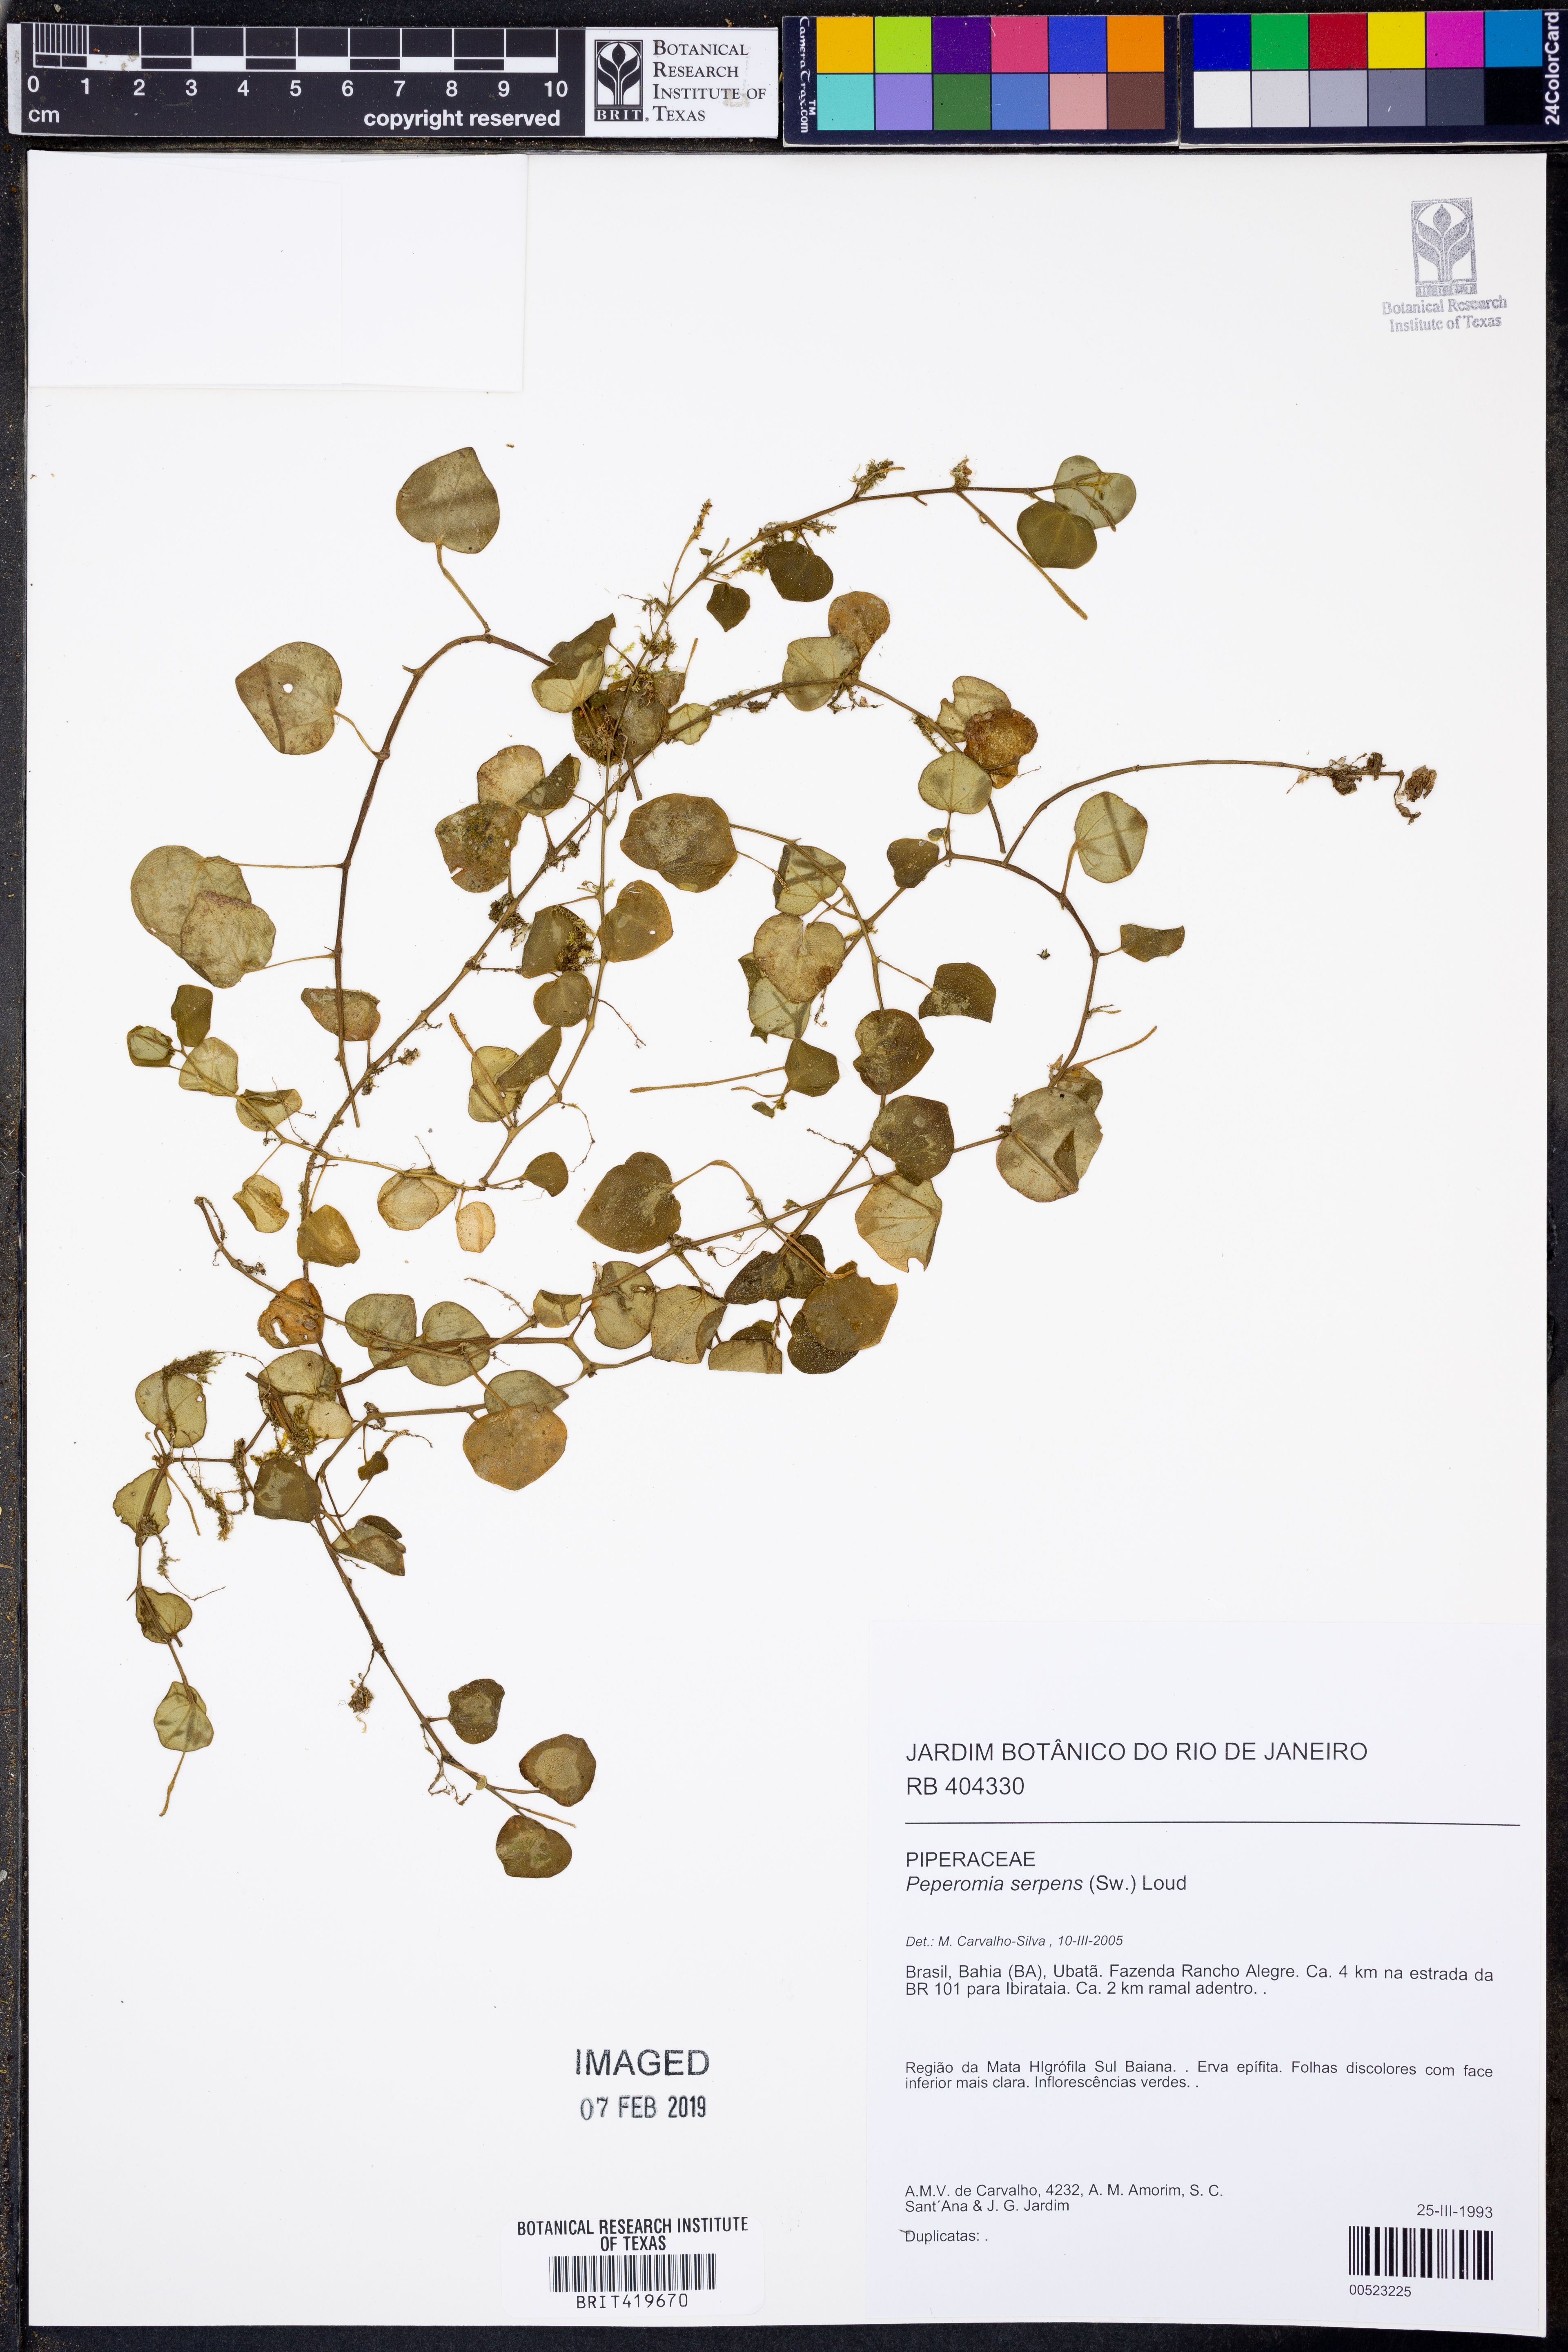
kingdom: Plantae
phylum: Tracheophyta
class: Magnoliopsida
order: Piperales
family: Piperaceae
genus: Peperomia
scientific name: Peperomia serpens
